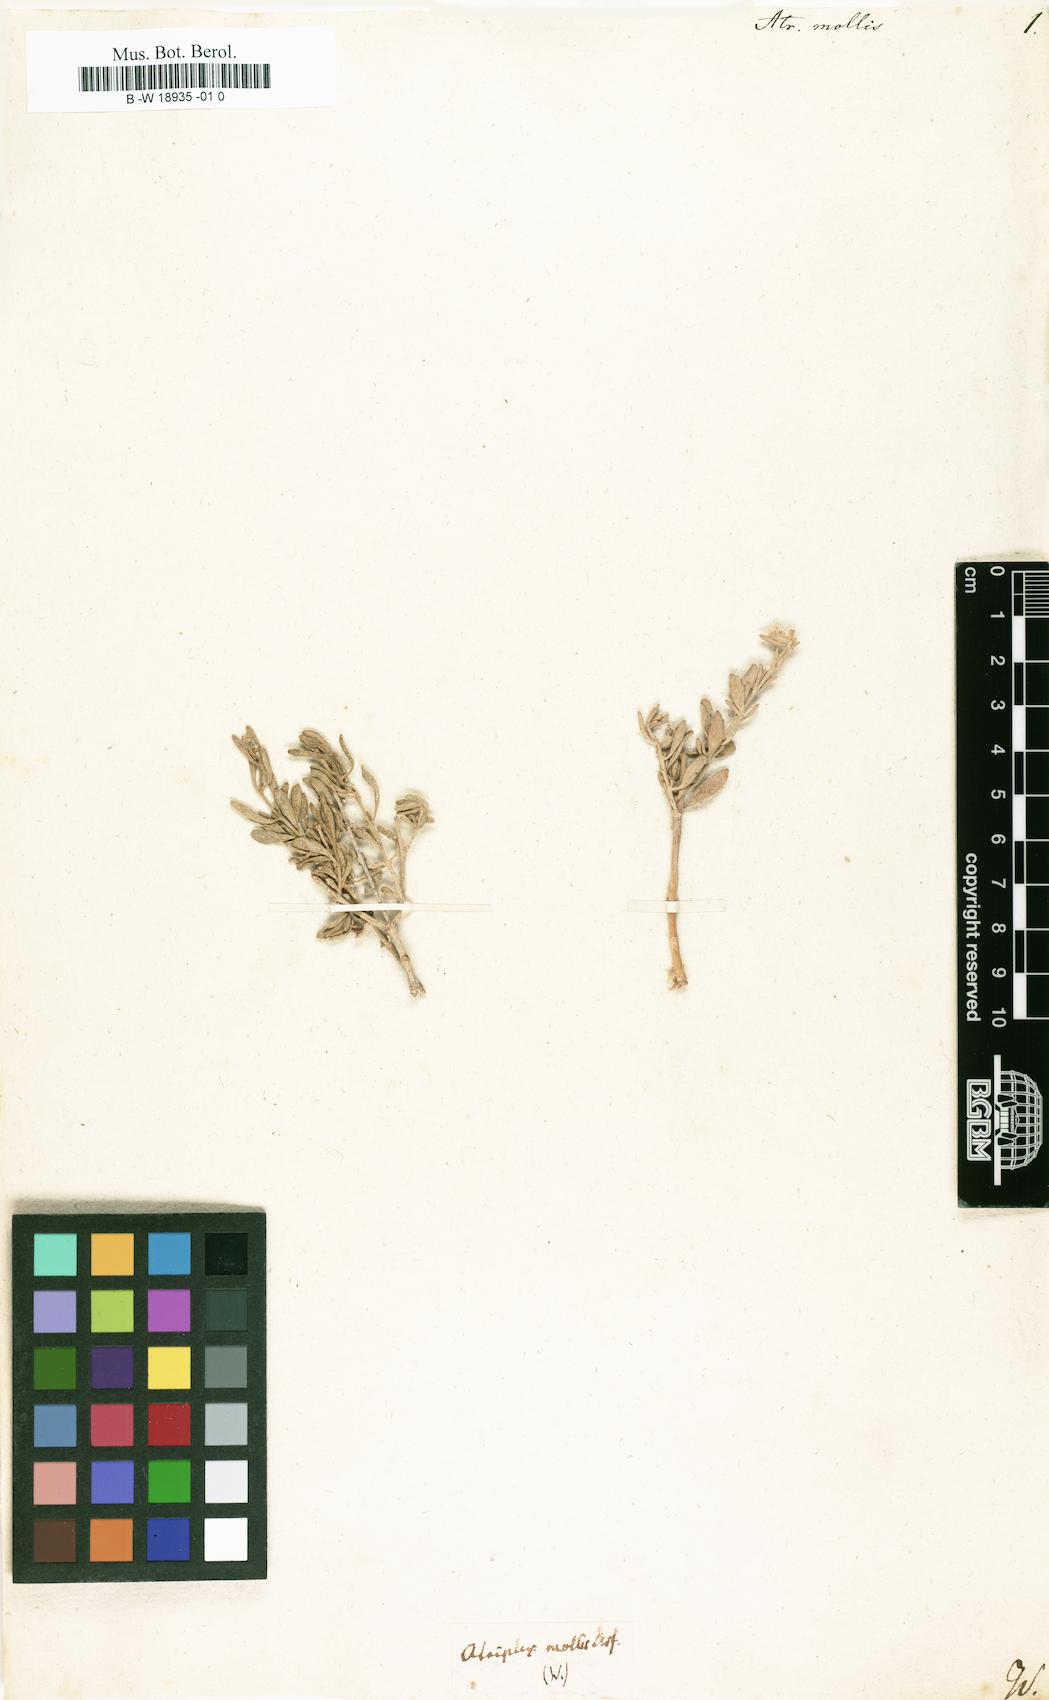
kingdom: Plantae
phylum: Tracheophyta
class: Magnoliopsida
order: Caryophyllales
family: Amaranthaceae
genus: Atriplex
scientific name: Atriplex mollis
